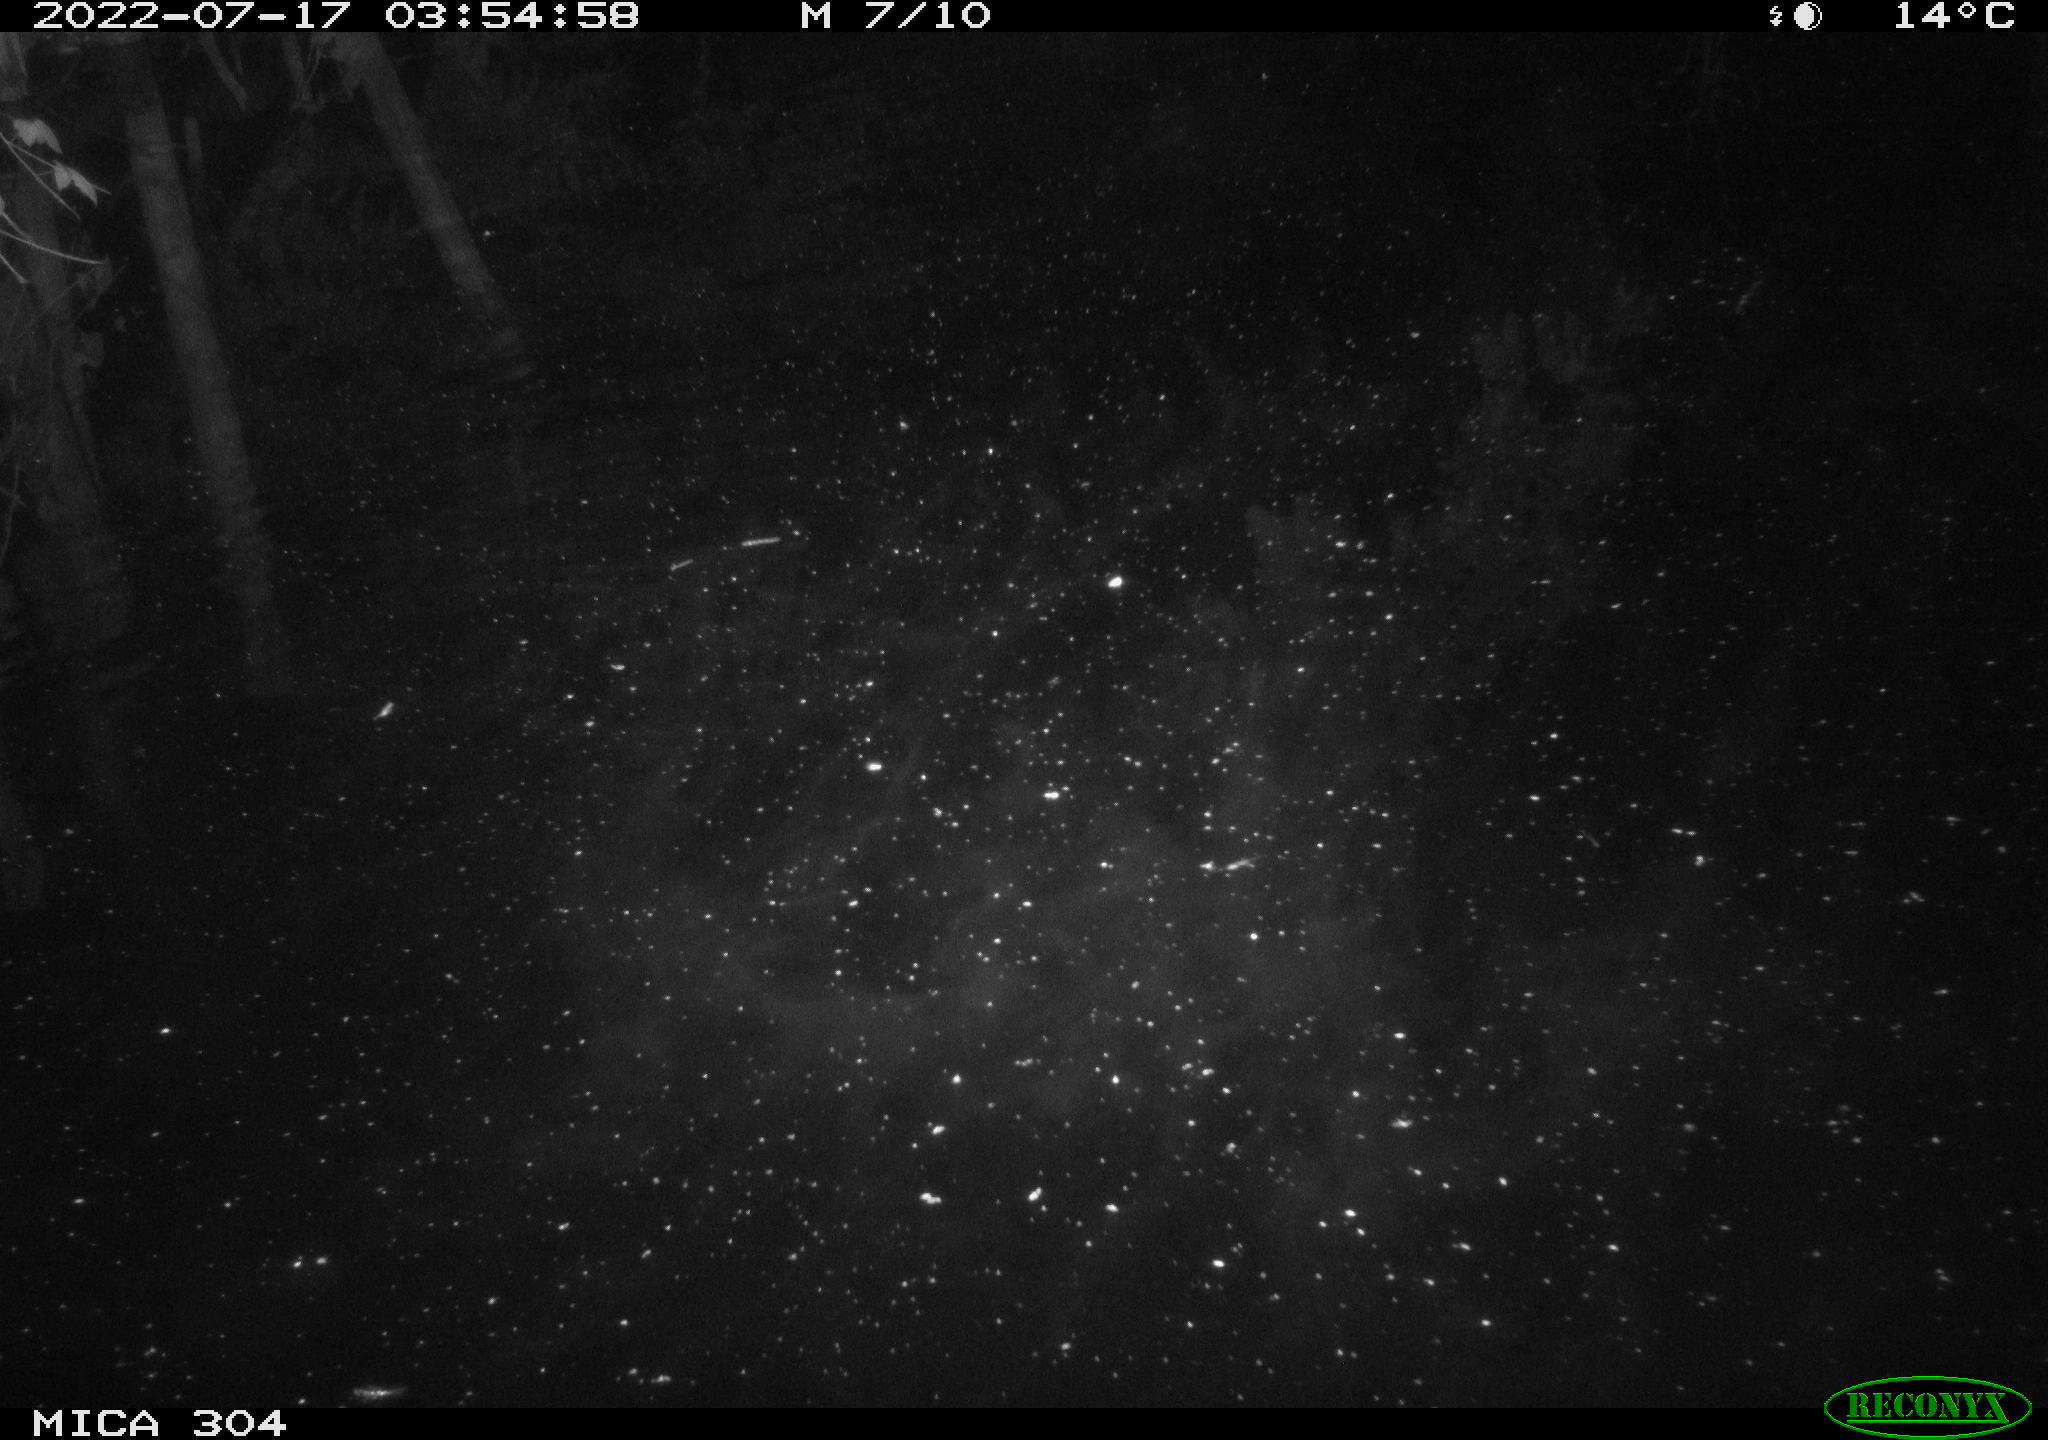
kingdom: Animalia
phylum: Chordata
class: Mammalia
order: Rodentia
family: Muridae
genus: Rattus
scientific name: Rattus norvegicus
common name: Brown rat
